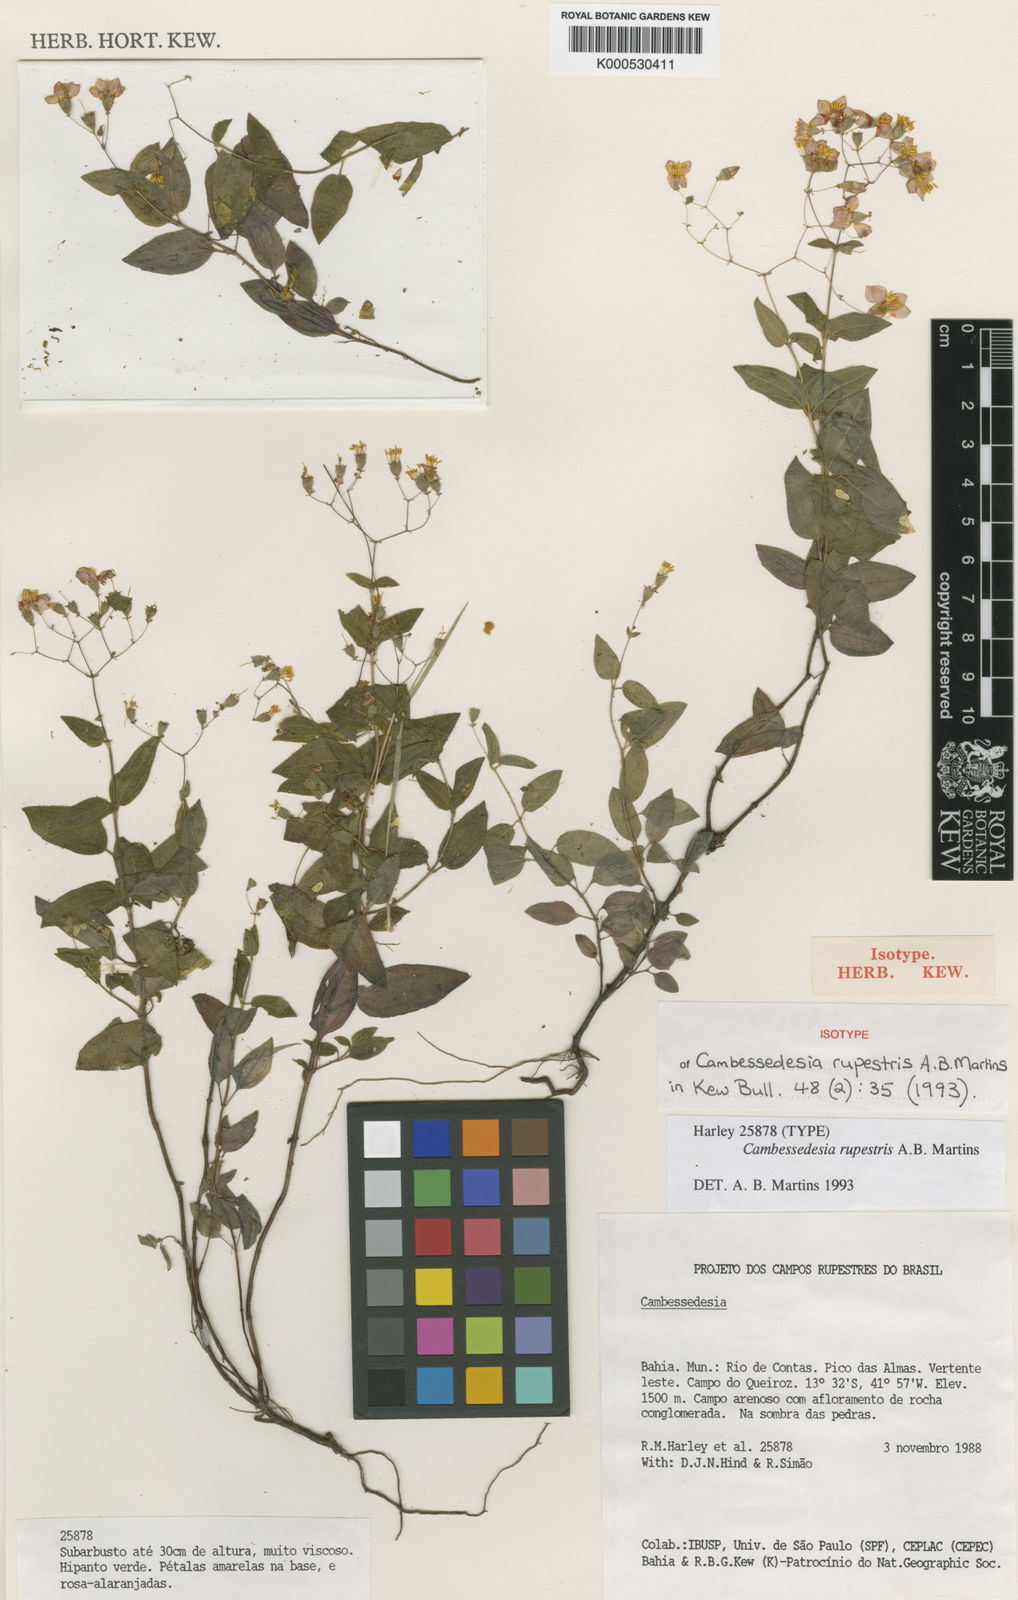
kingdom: Plantae
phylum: Tracheophyta
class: Magnoliopsida
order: Myrtales
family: Melastomataceae
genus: Cambessedesia
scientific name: Cambessedesia rupestris
